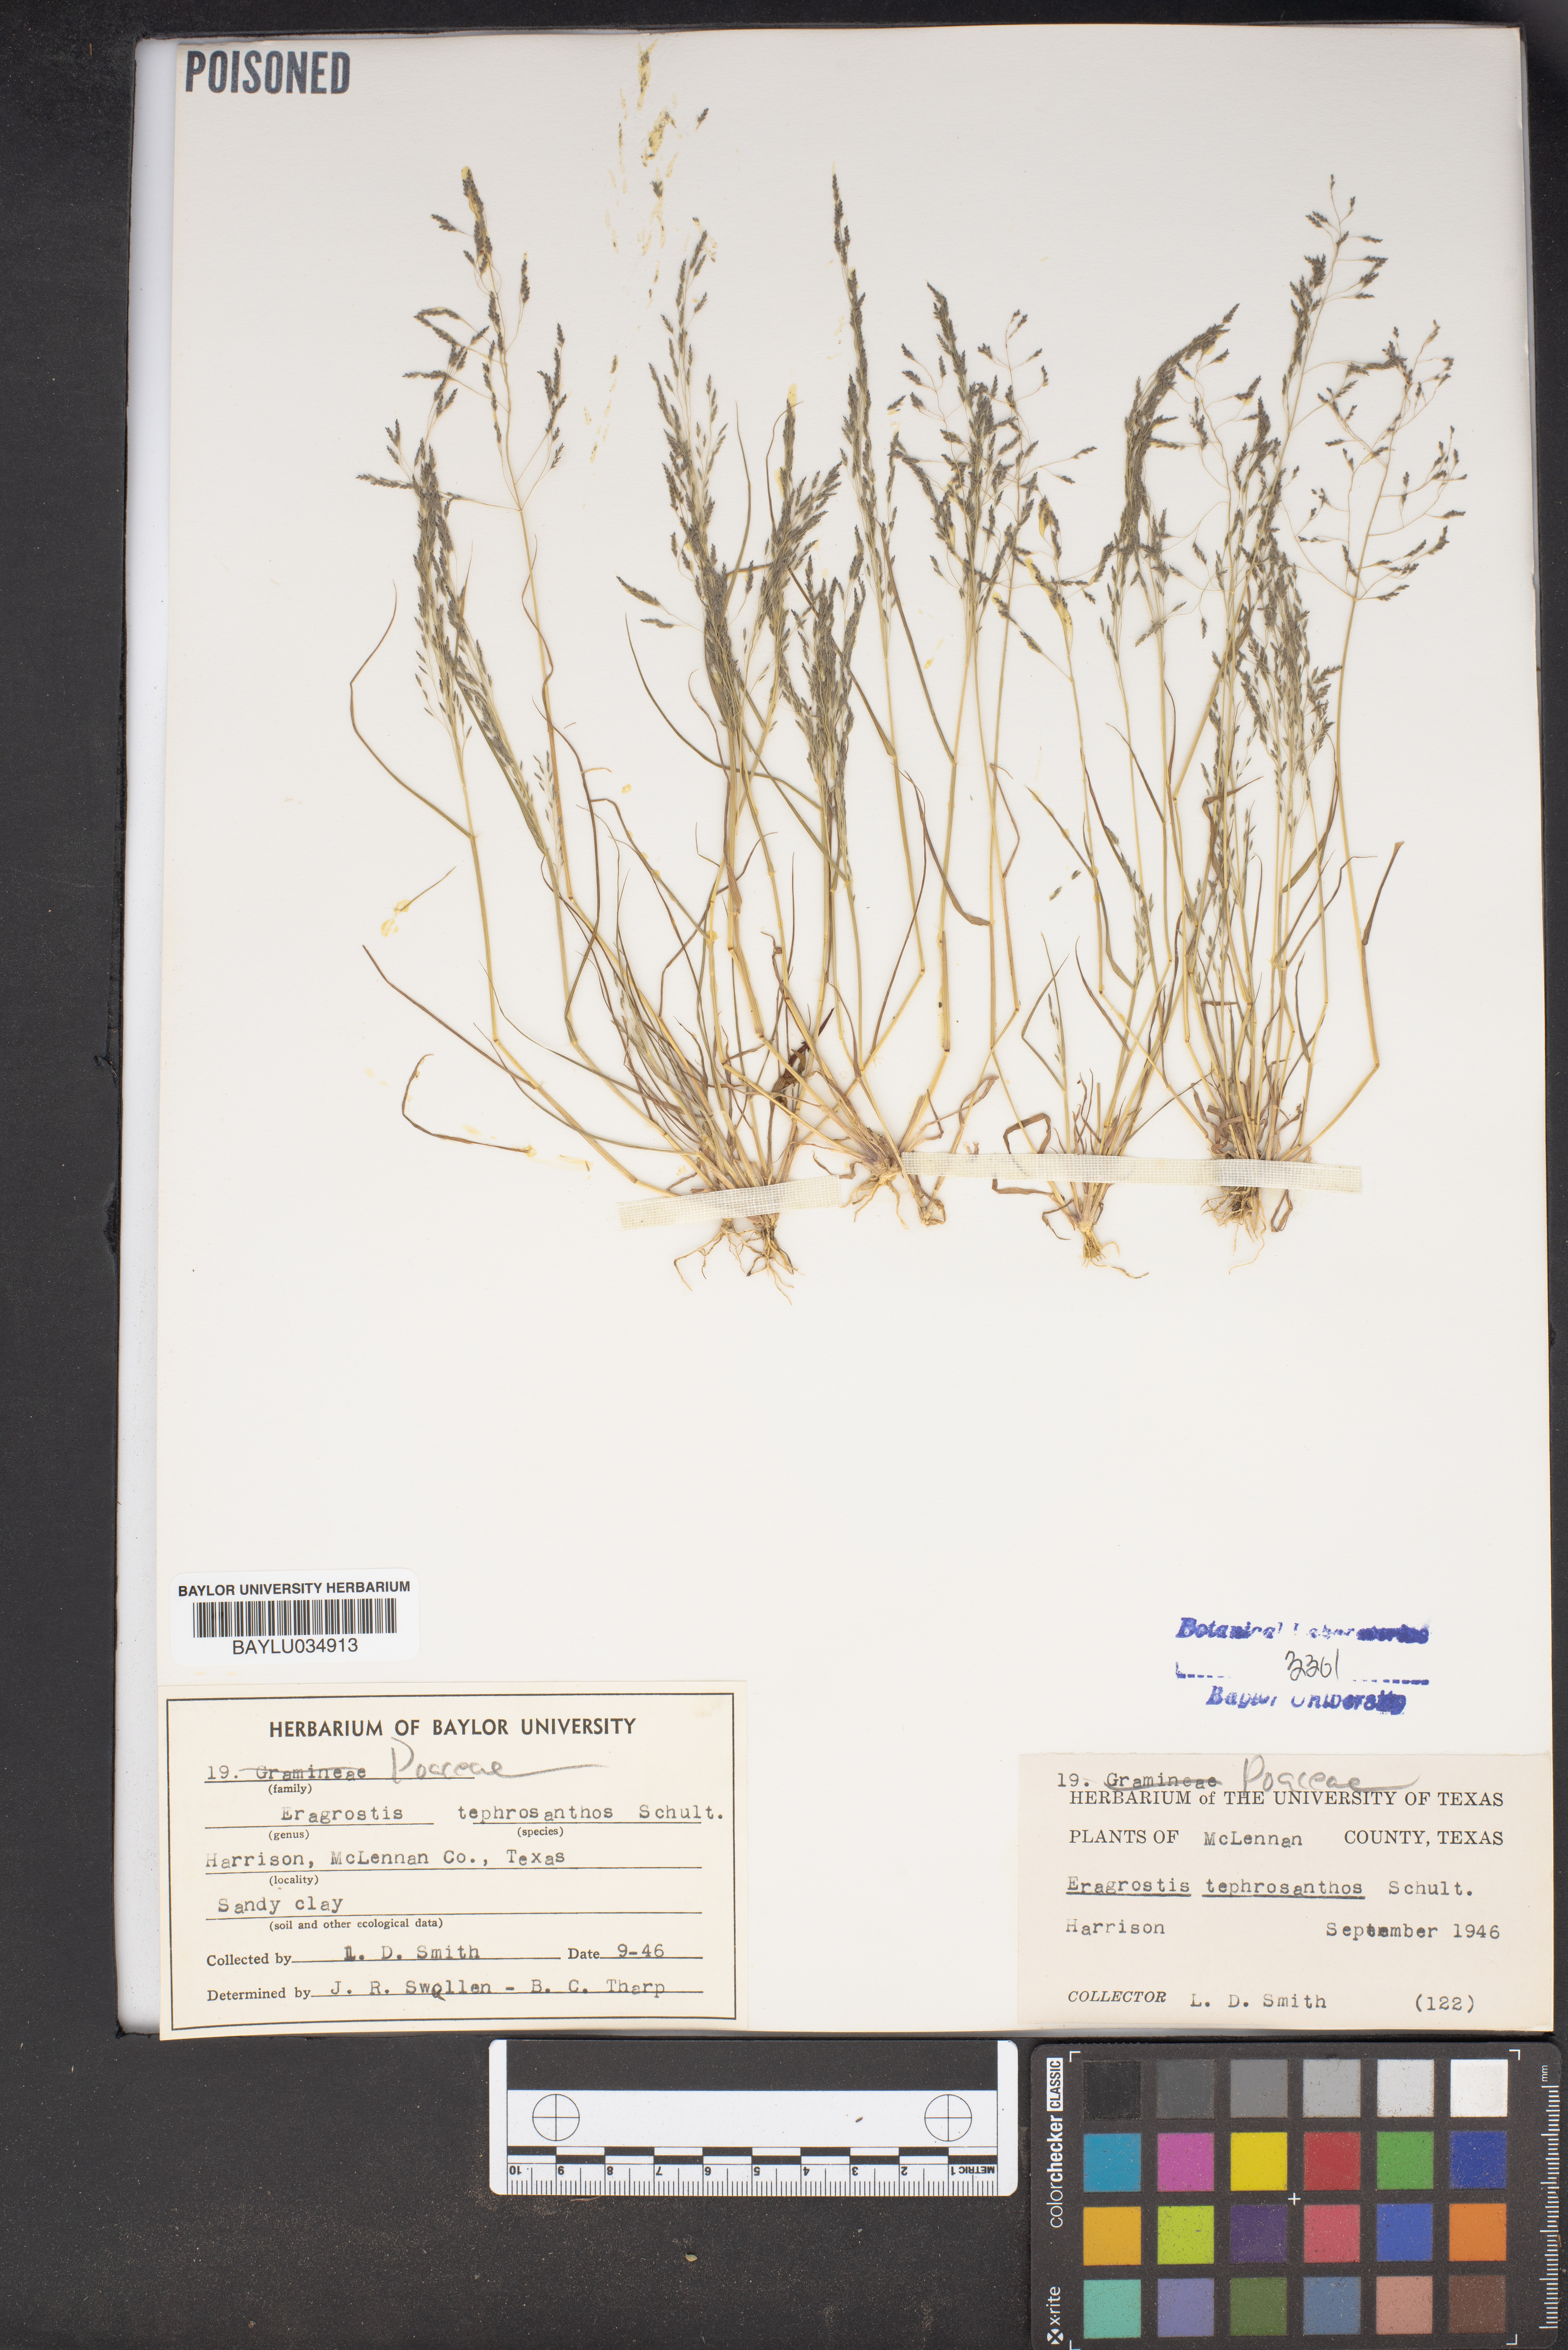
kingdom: Plantae
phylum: Tracheophyta
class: Liliopsida
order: Poales
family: Poaceae
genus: Eragrostis
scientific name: Eragrostis tephrosanthos
